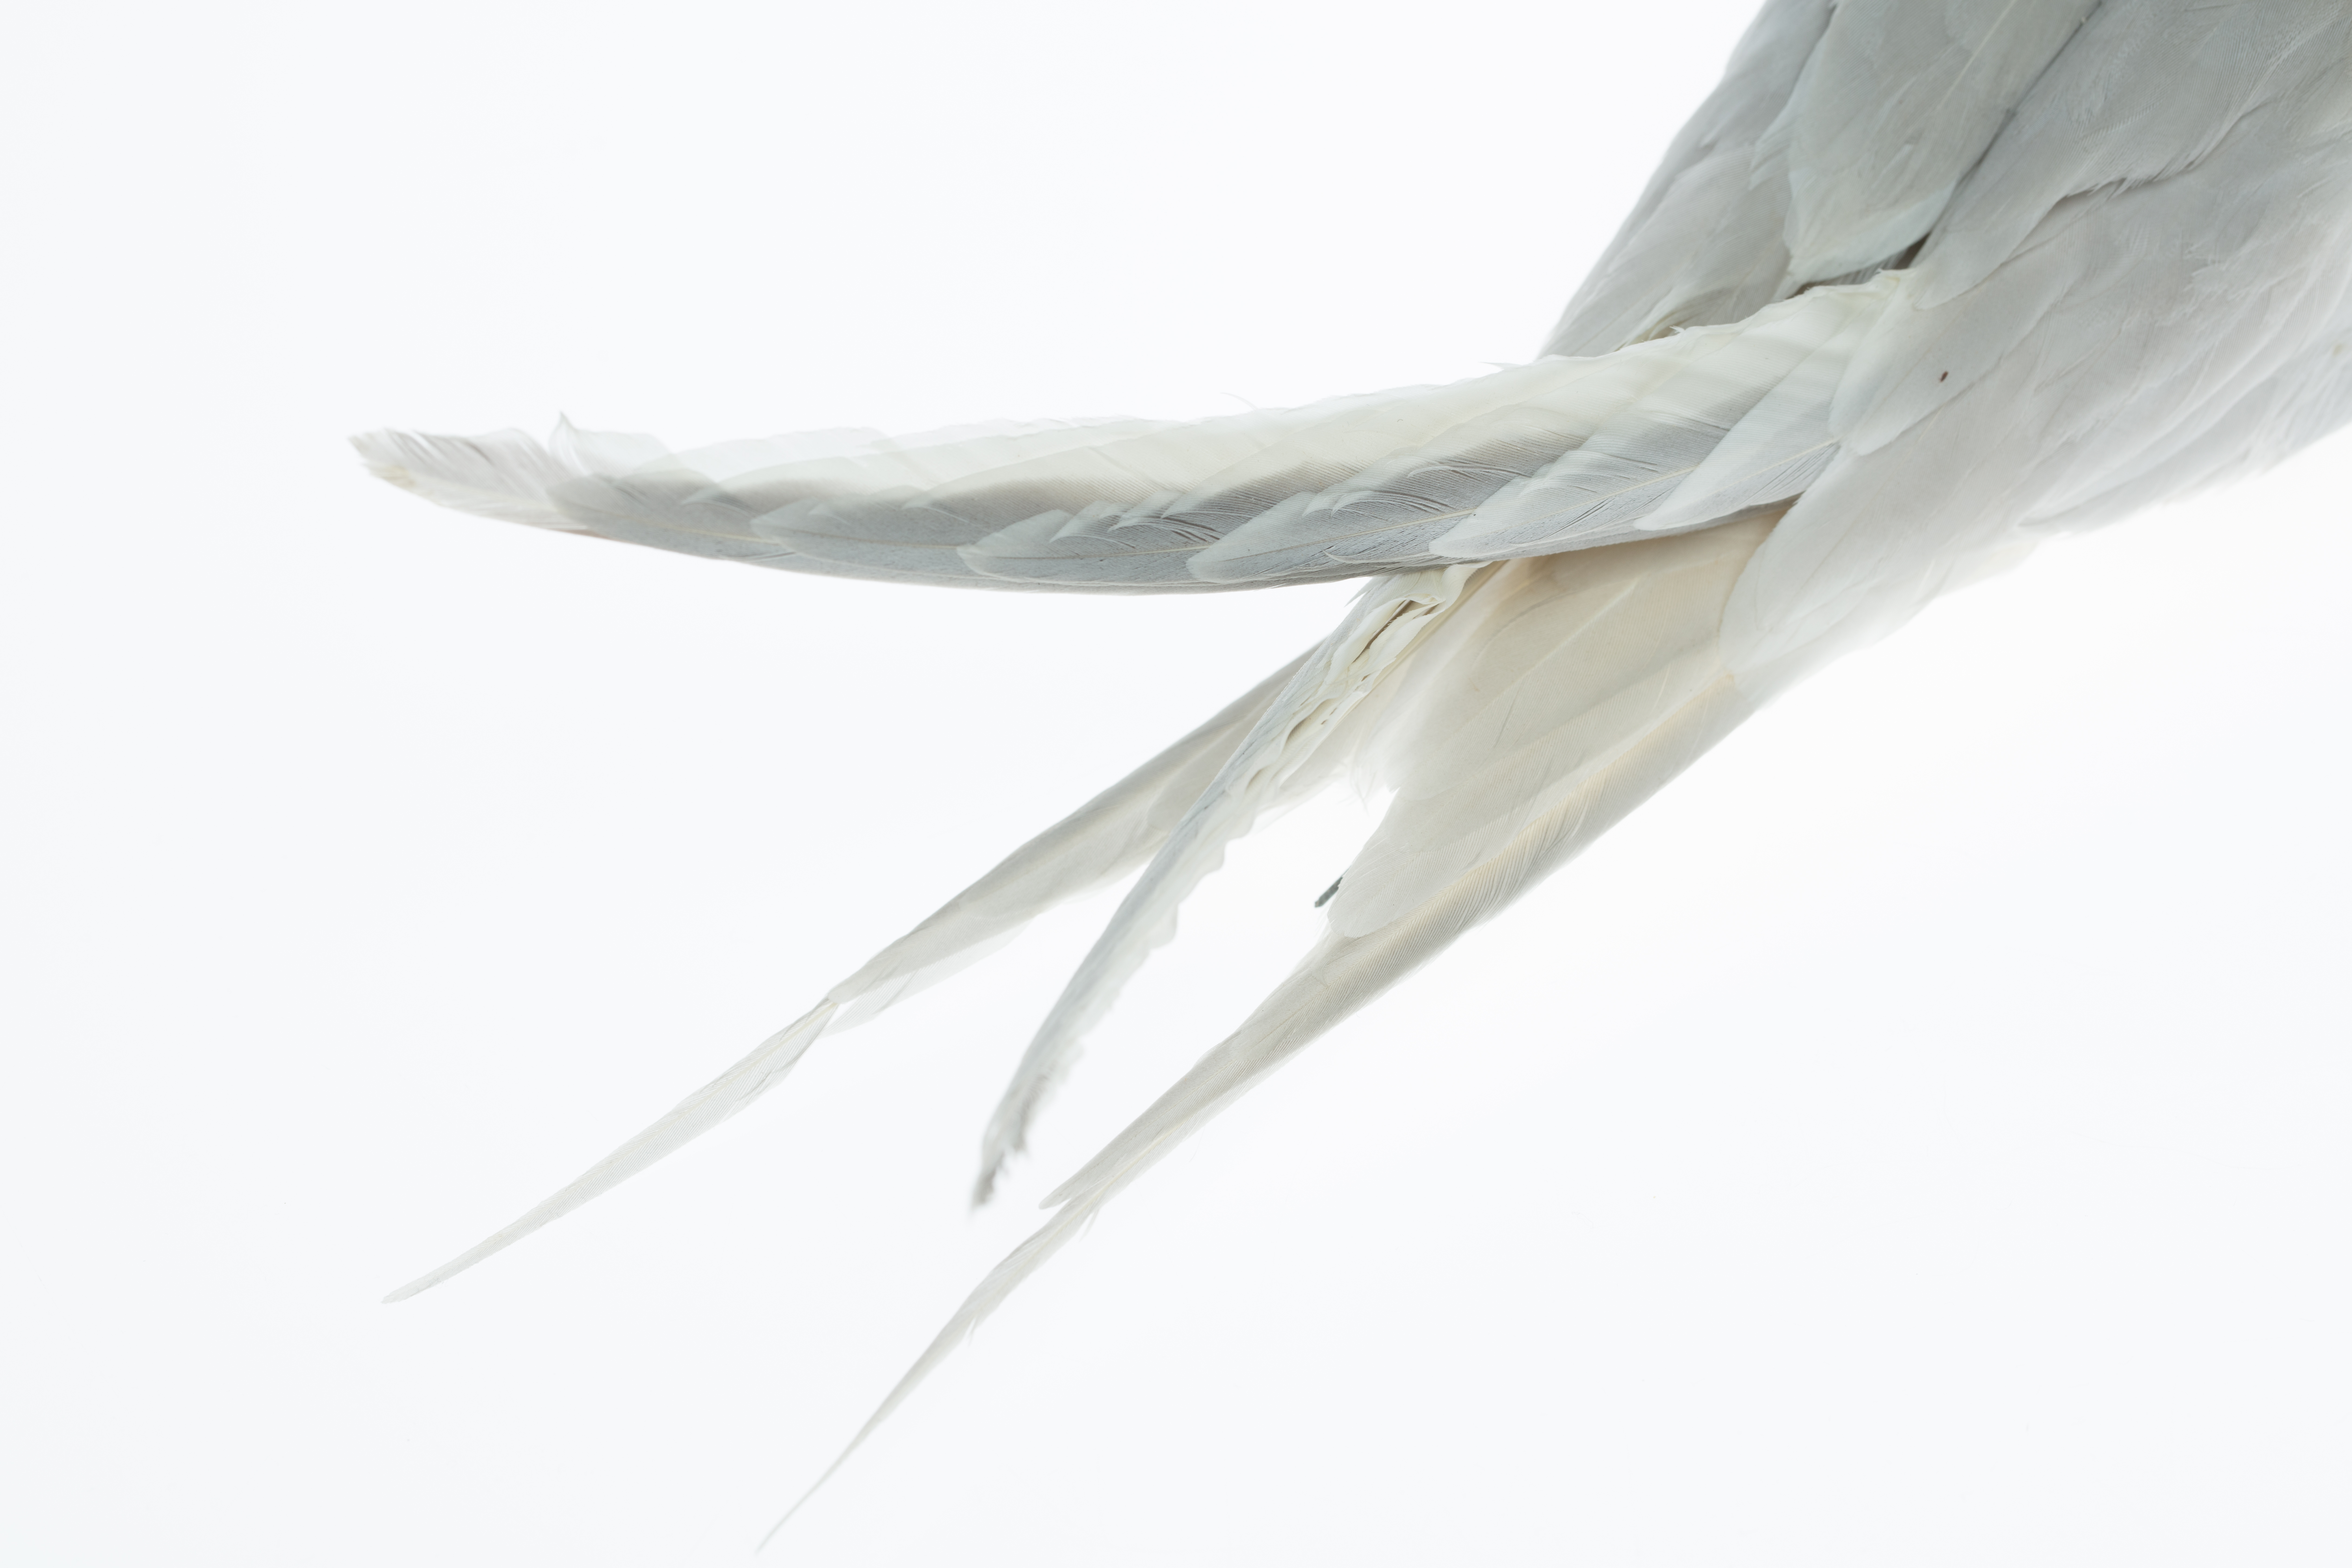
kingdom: Animalia
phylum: Chordata
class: Aves
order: Charadriiformes
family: Laridae
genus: Sterna
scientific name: Sterna striata
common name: White-fronted tern
